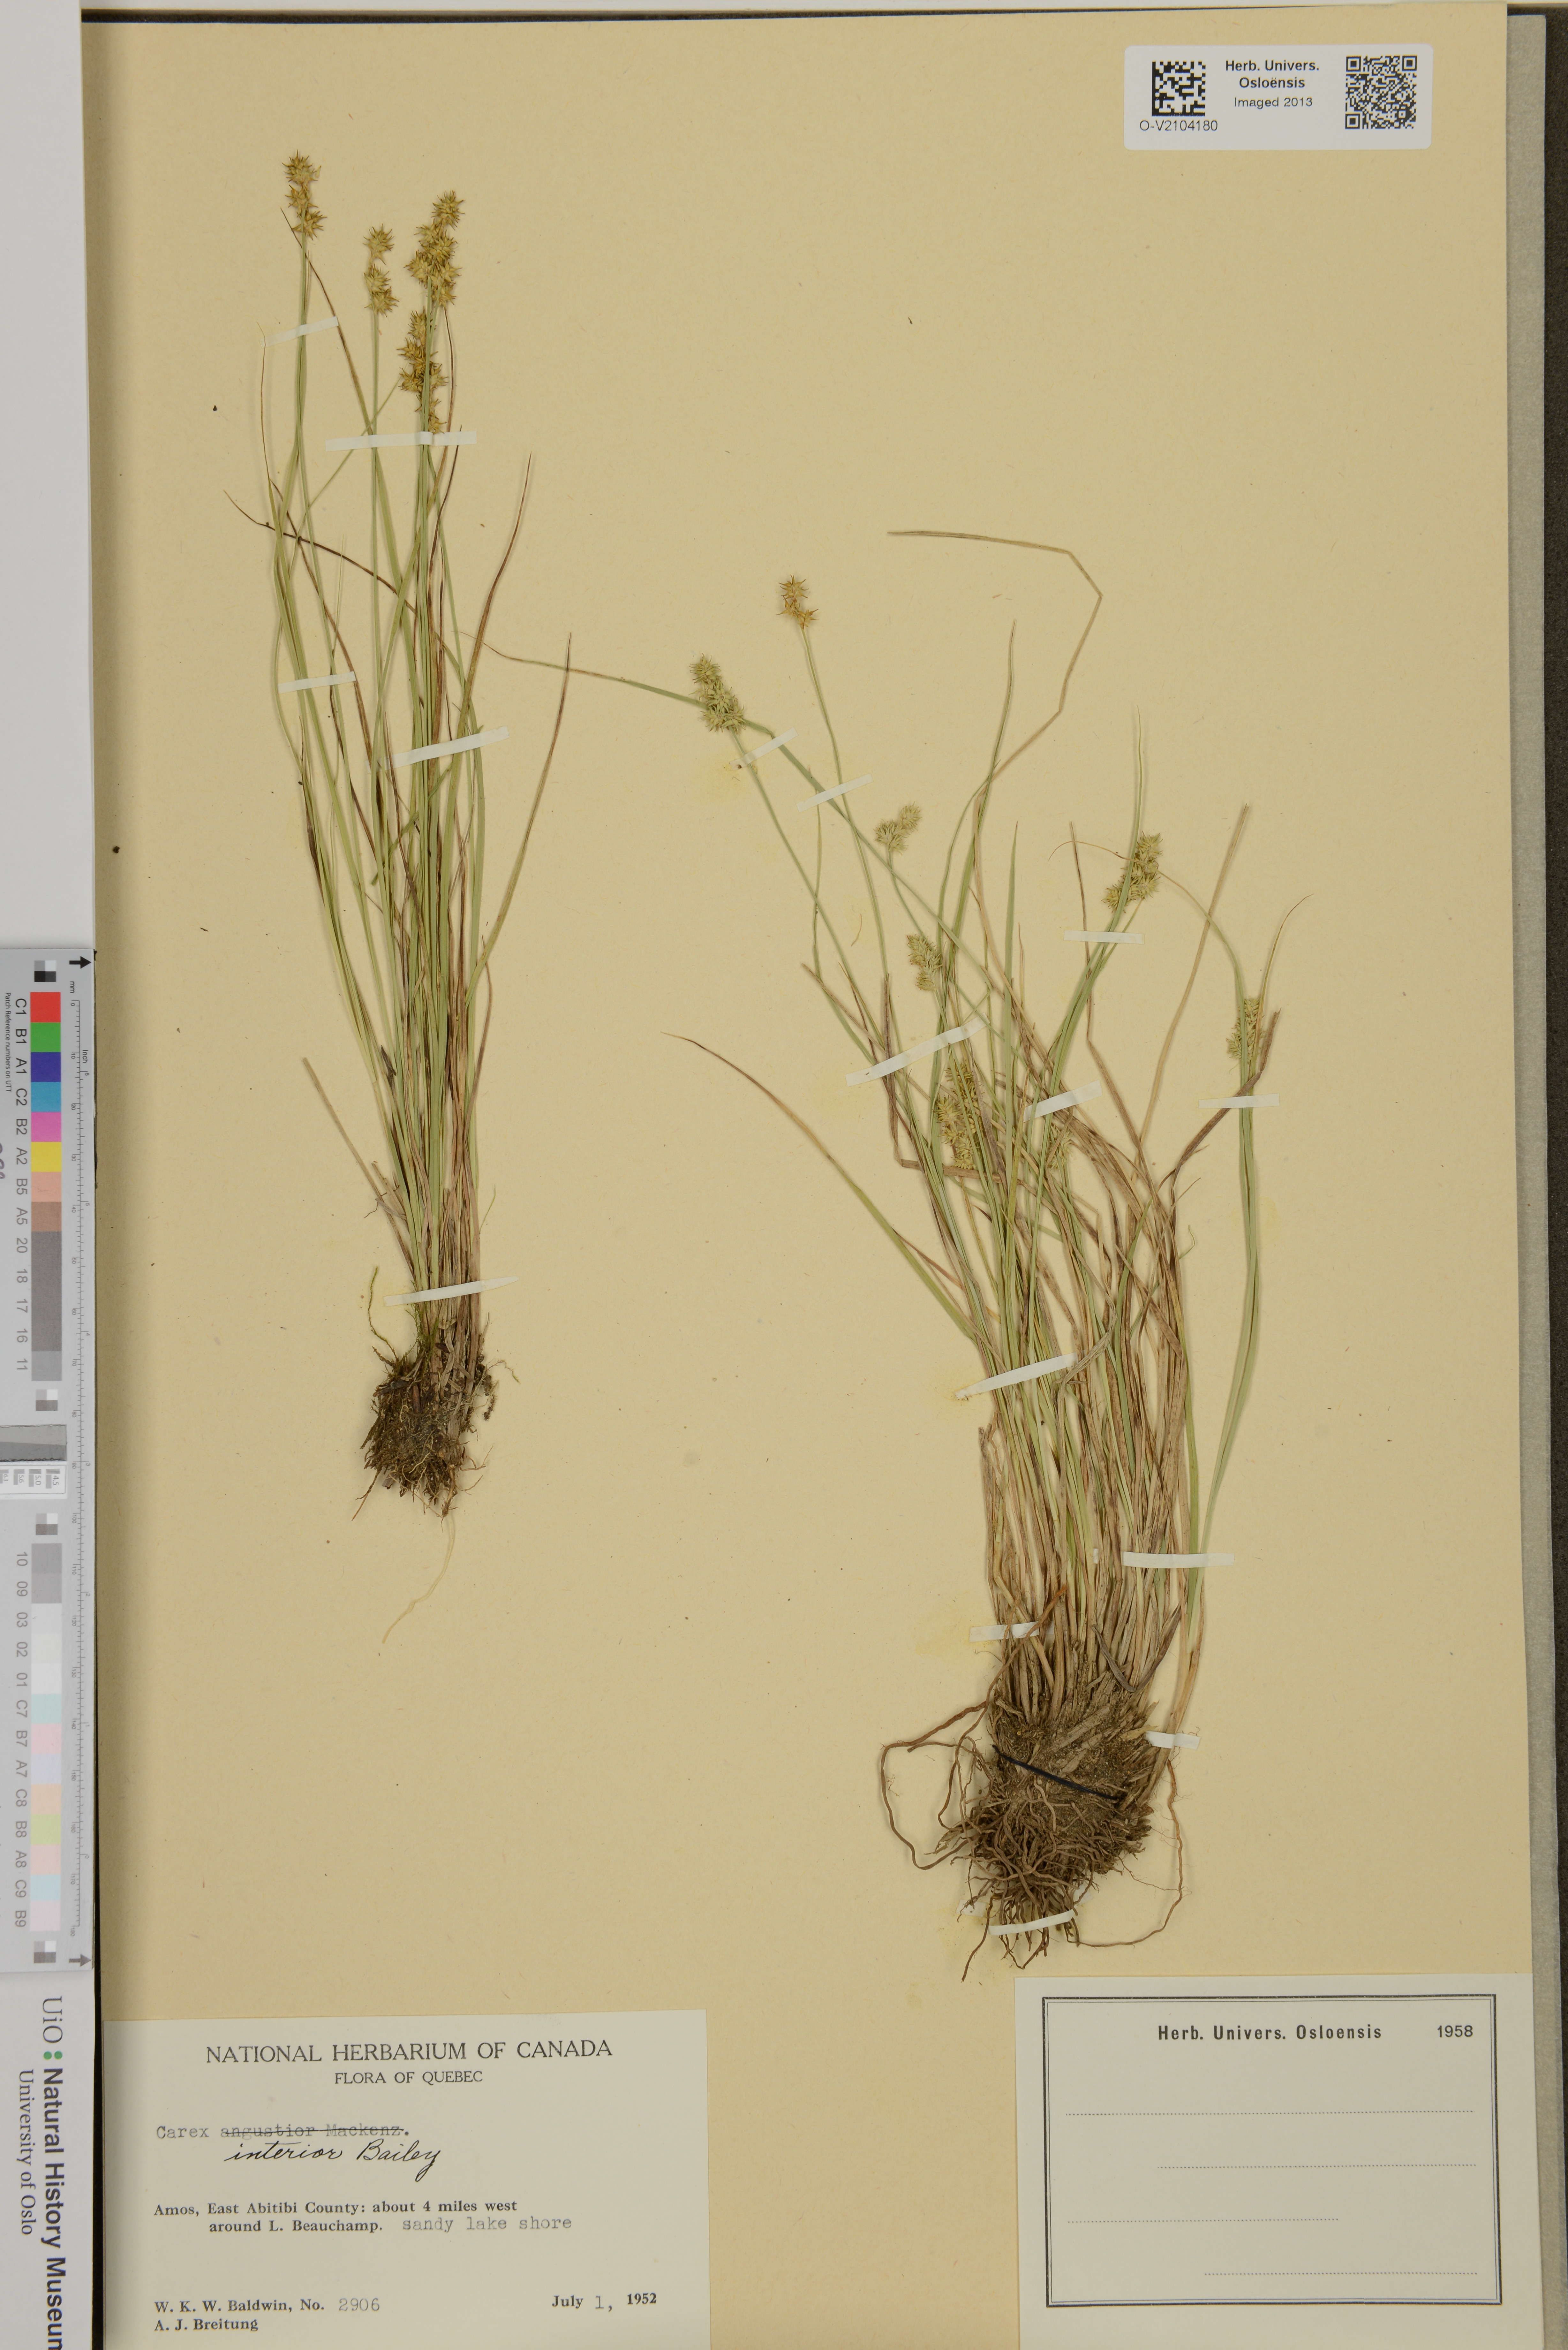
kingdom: Plantae
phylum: Tracheophyta
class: Liliopsida
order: Poales
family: Cyperaceae
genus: Carex
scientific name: Carex interior
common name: Inland sedge
